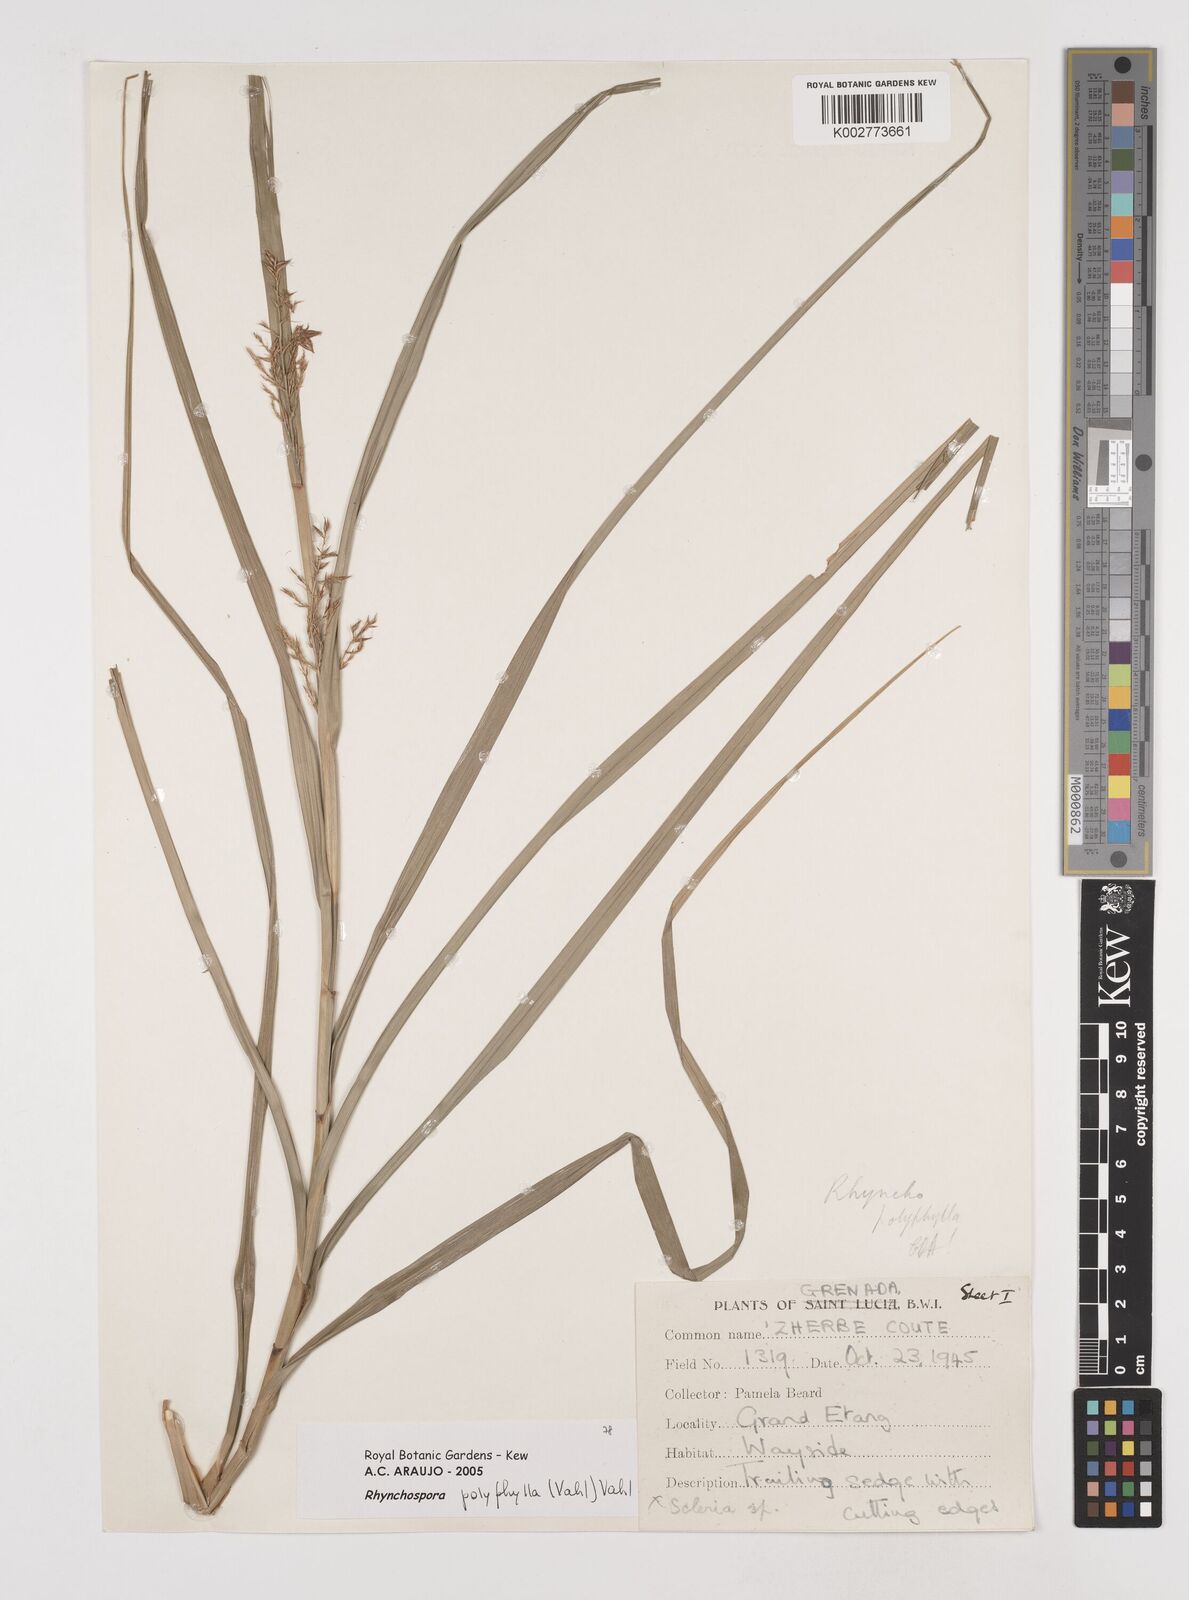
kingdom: Plantae
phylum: Tracheophyta
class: Liliopsida
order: Poales
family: Cyperaceae
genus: Rhynchospora
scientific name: Rhynchospora polyphylla
